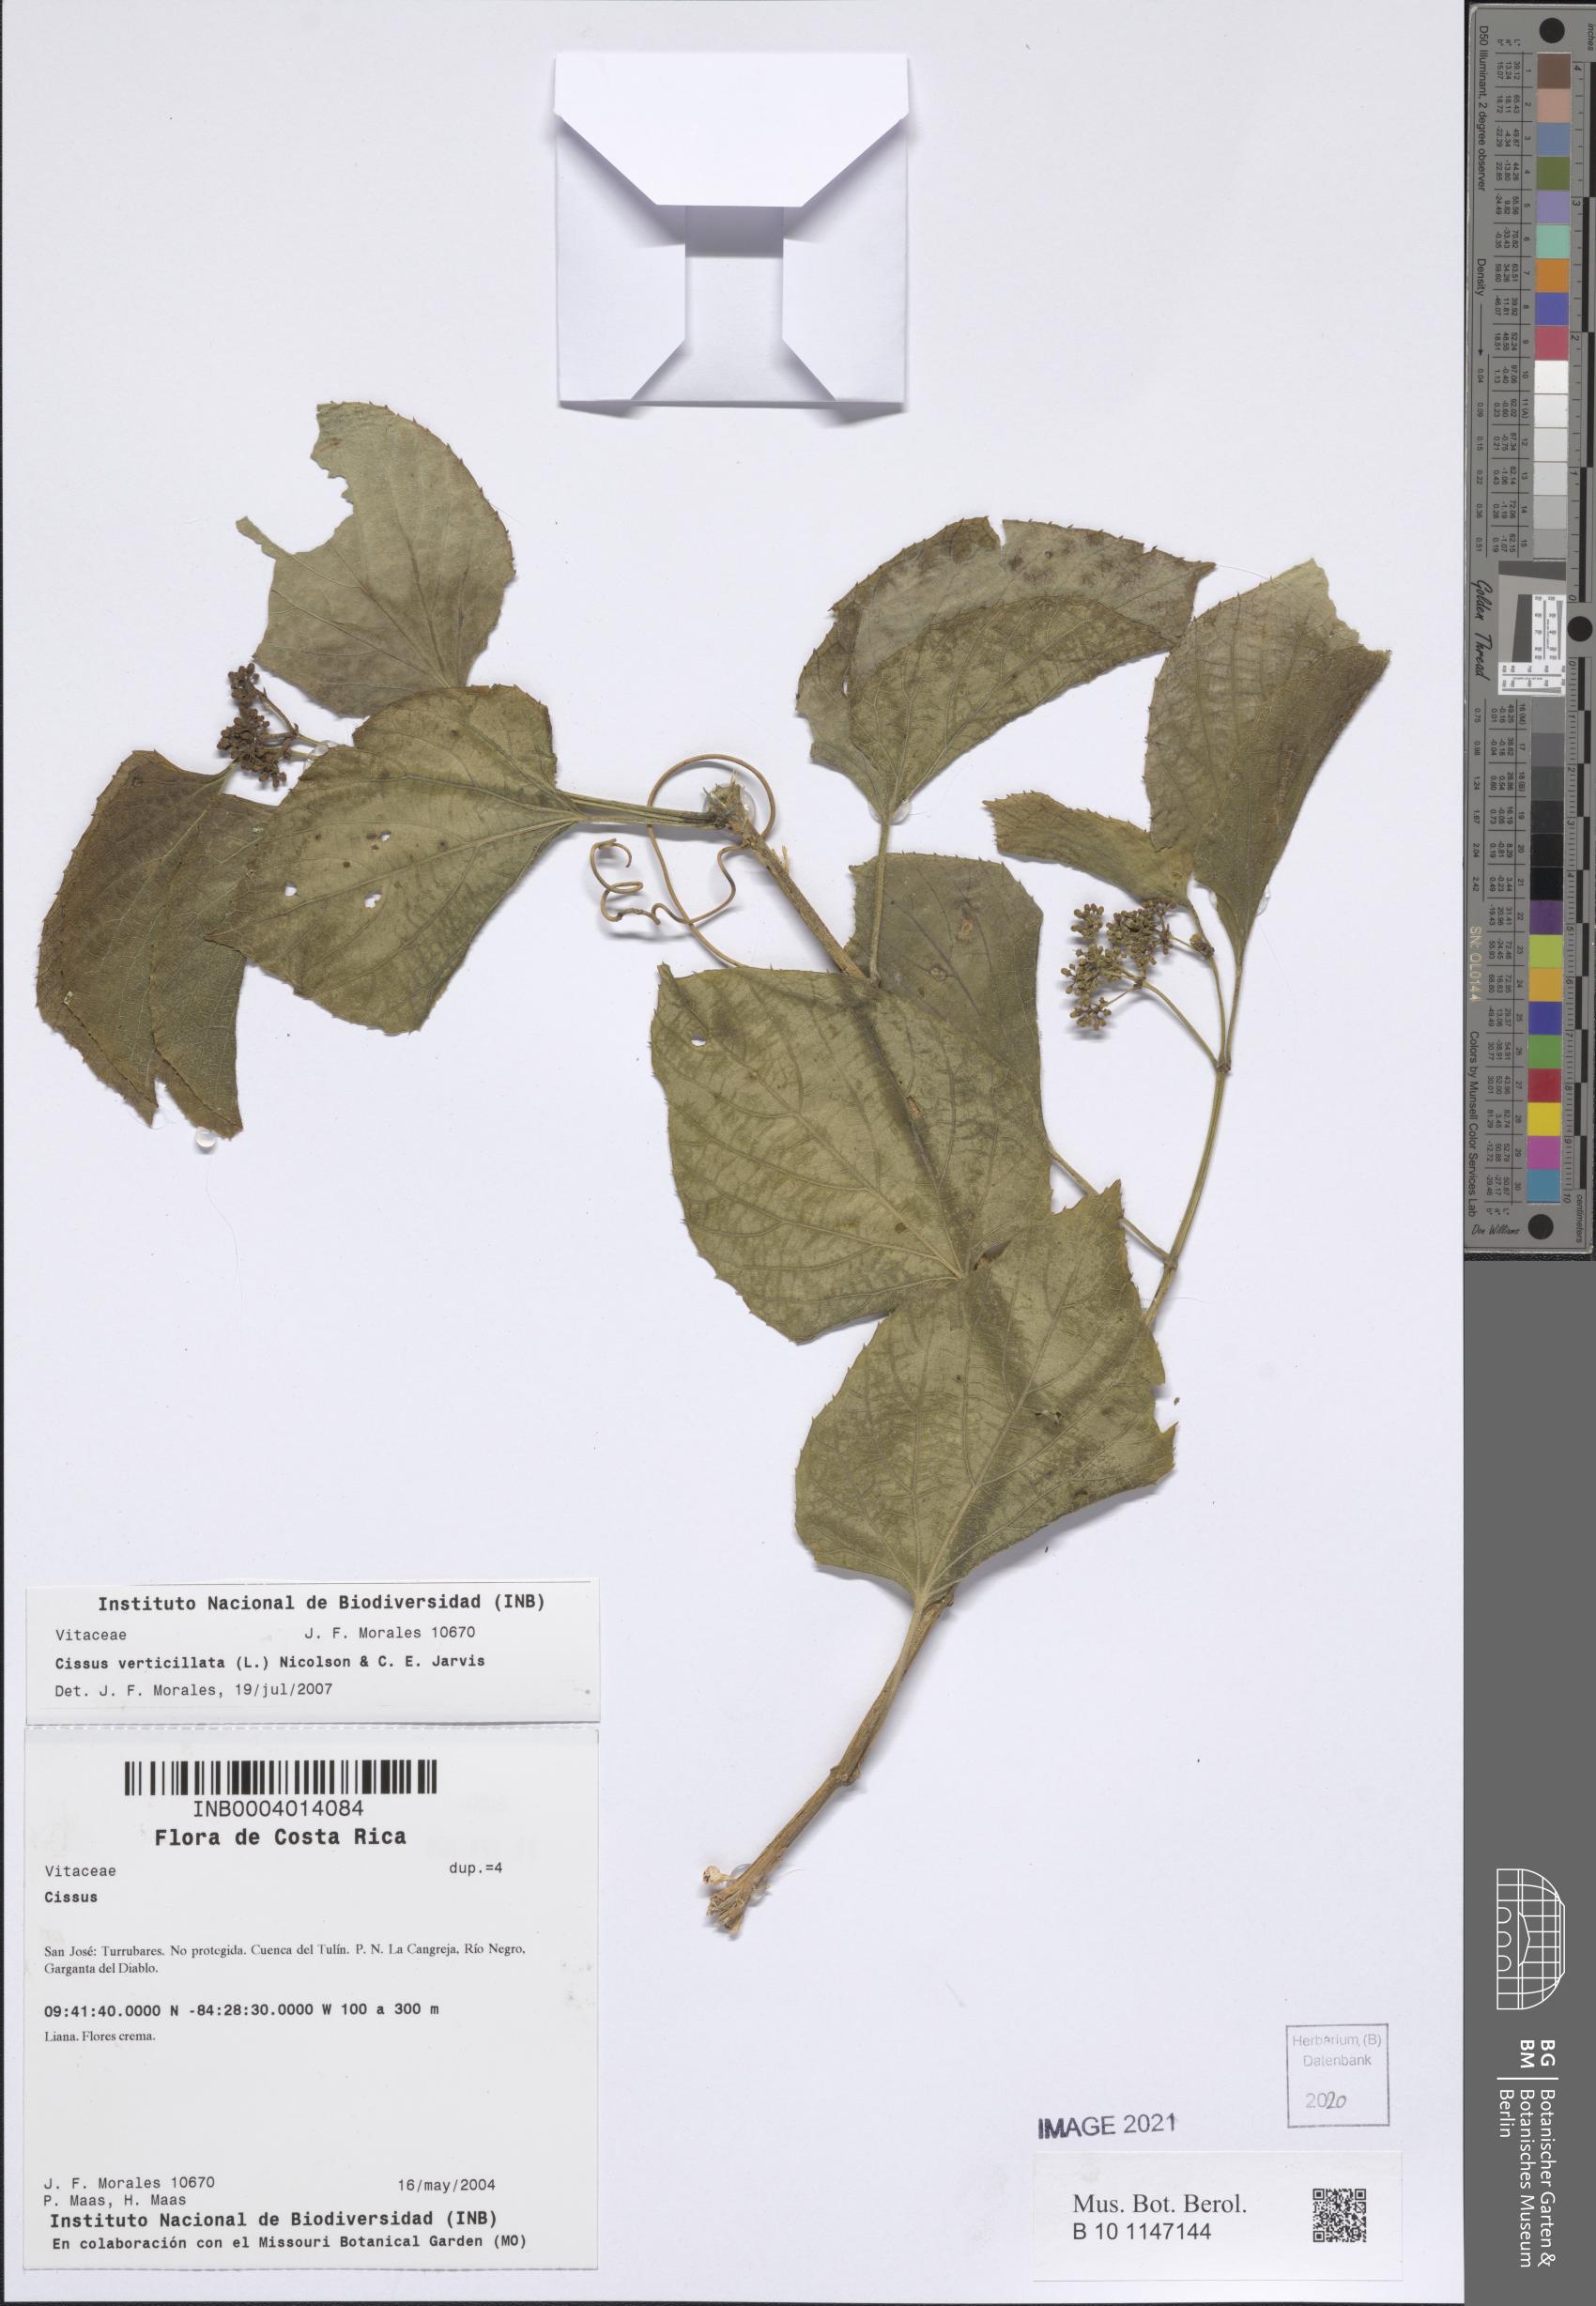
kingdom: Plantae
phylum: Tracheophyta
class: Magnoliopsida
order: Vitales
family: Vitaceae
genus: Cissus
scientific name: Cissus verticillata
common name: Princess vine
